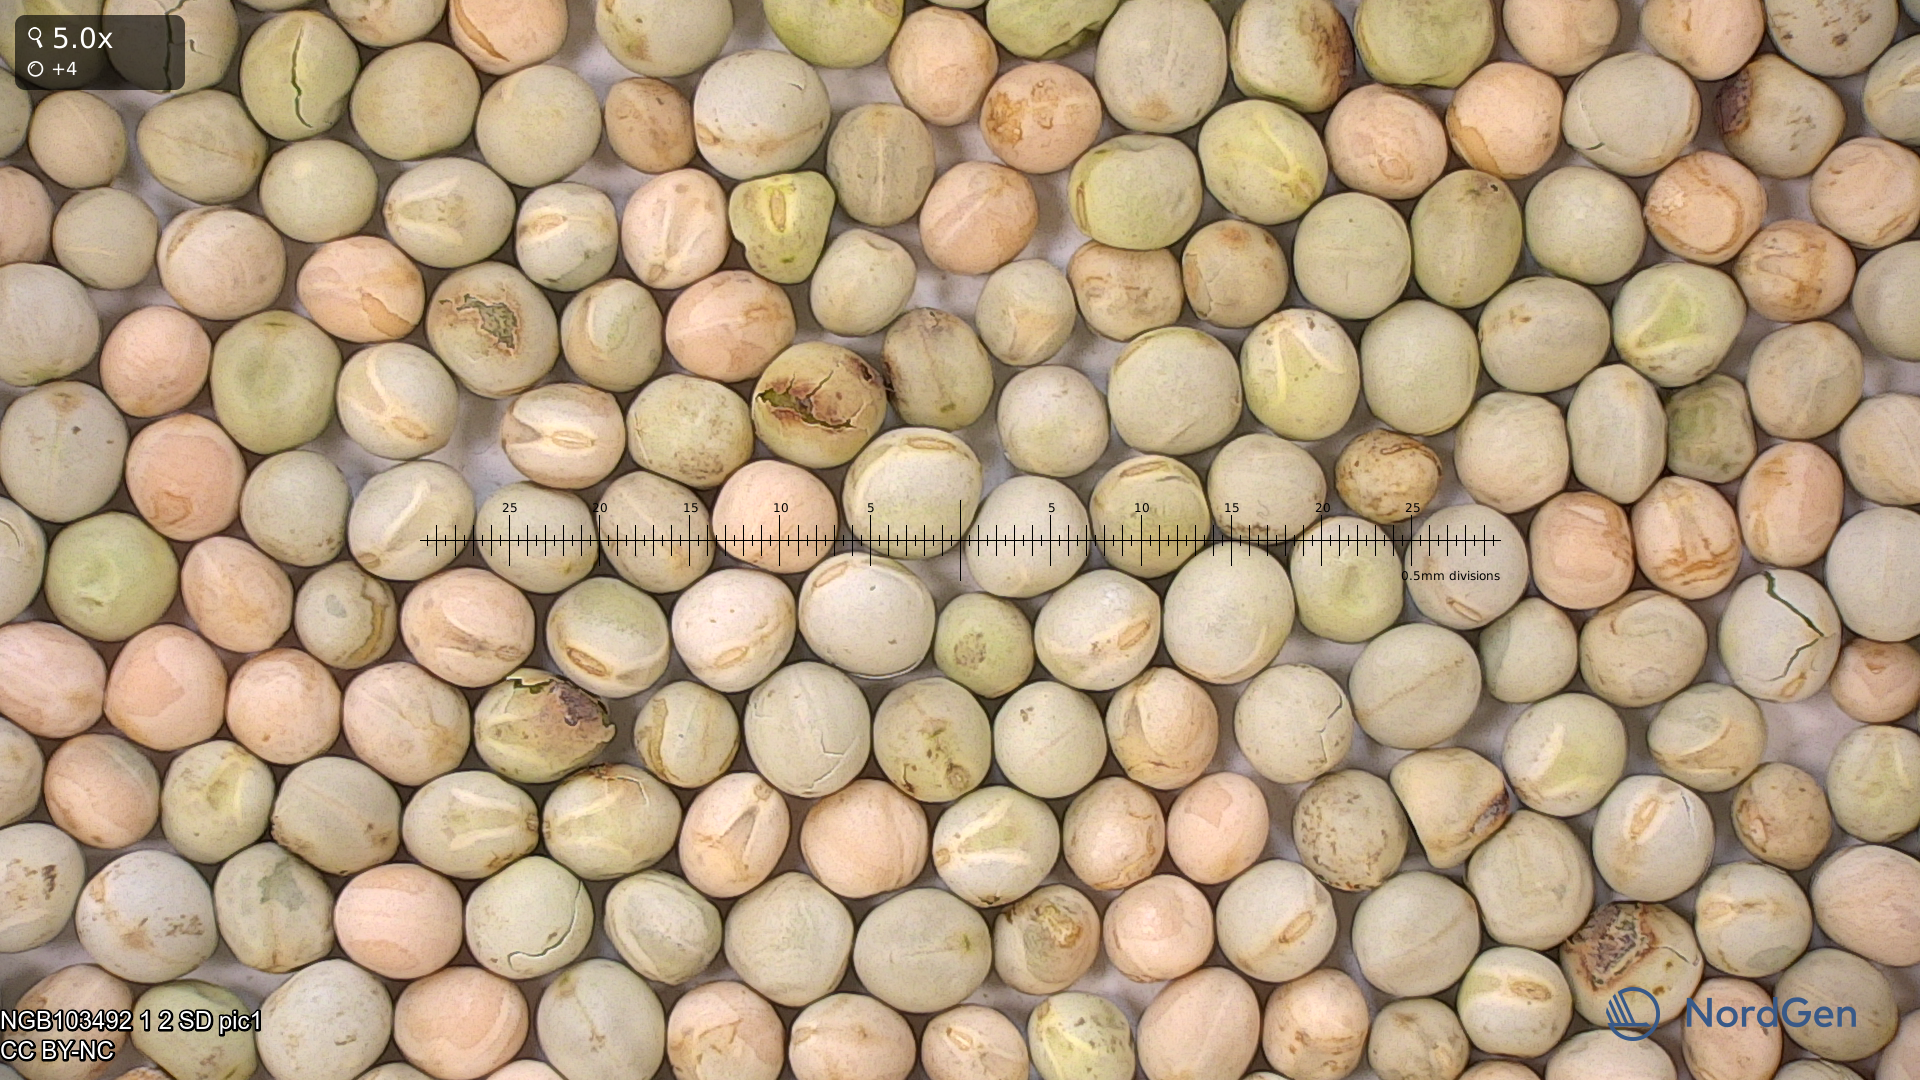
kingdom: Plantae
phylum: Tracheophyta
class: Magnoliopsida
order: Fabales
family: Fabaceae
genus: Lathyrus
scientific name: Lathyrus oleraceus
